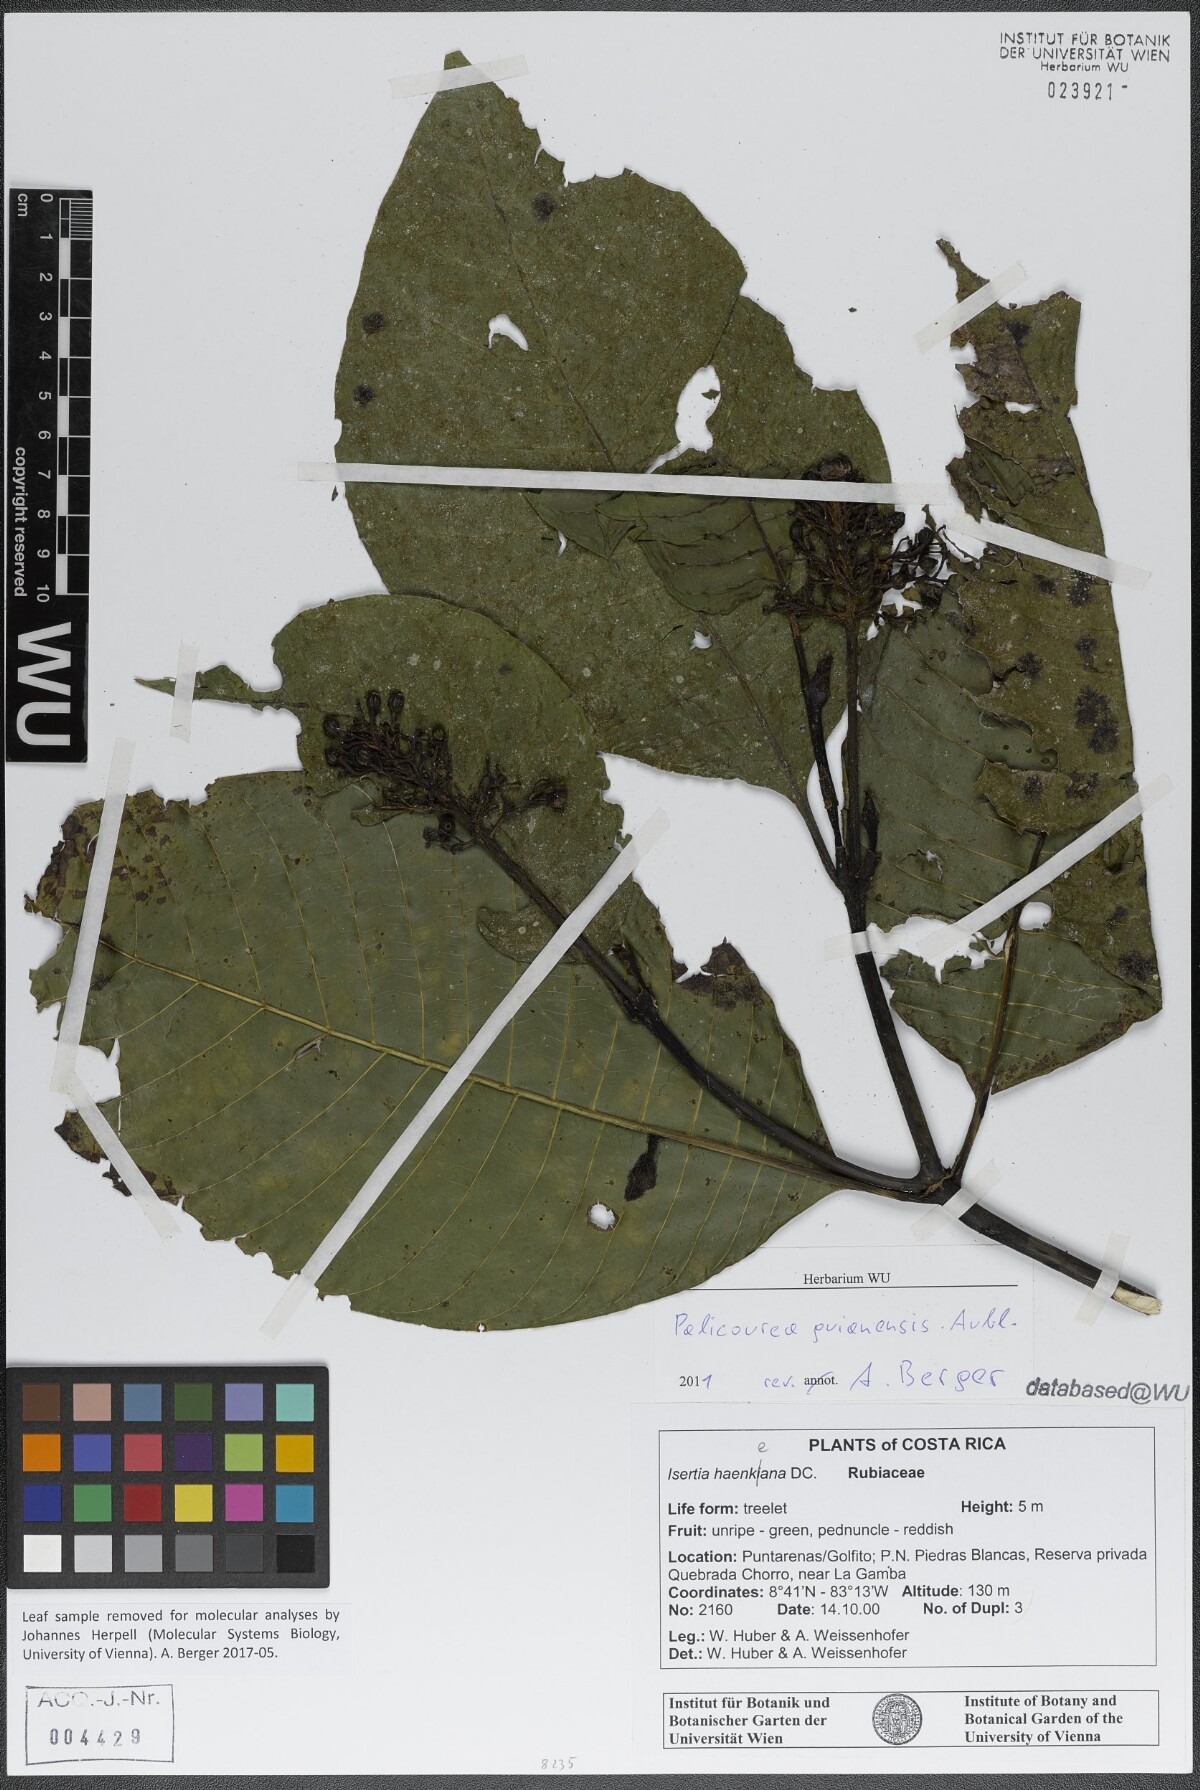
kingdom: Plantae
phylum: Tracheophyta
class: Magnoliopsida
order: Gentianales
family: Rubiaceae
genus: Palicourea
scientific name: Palicourea guianensis
